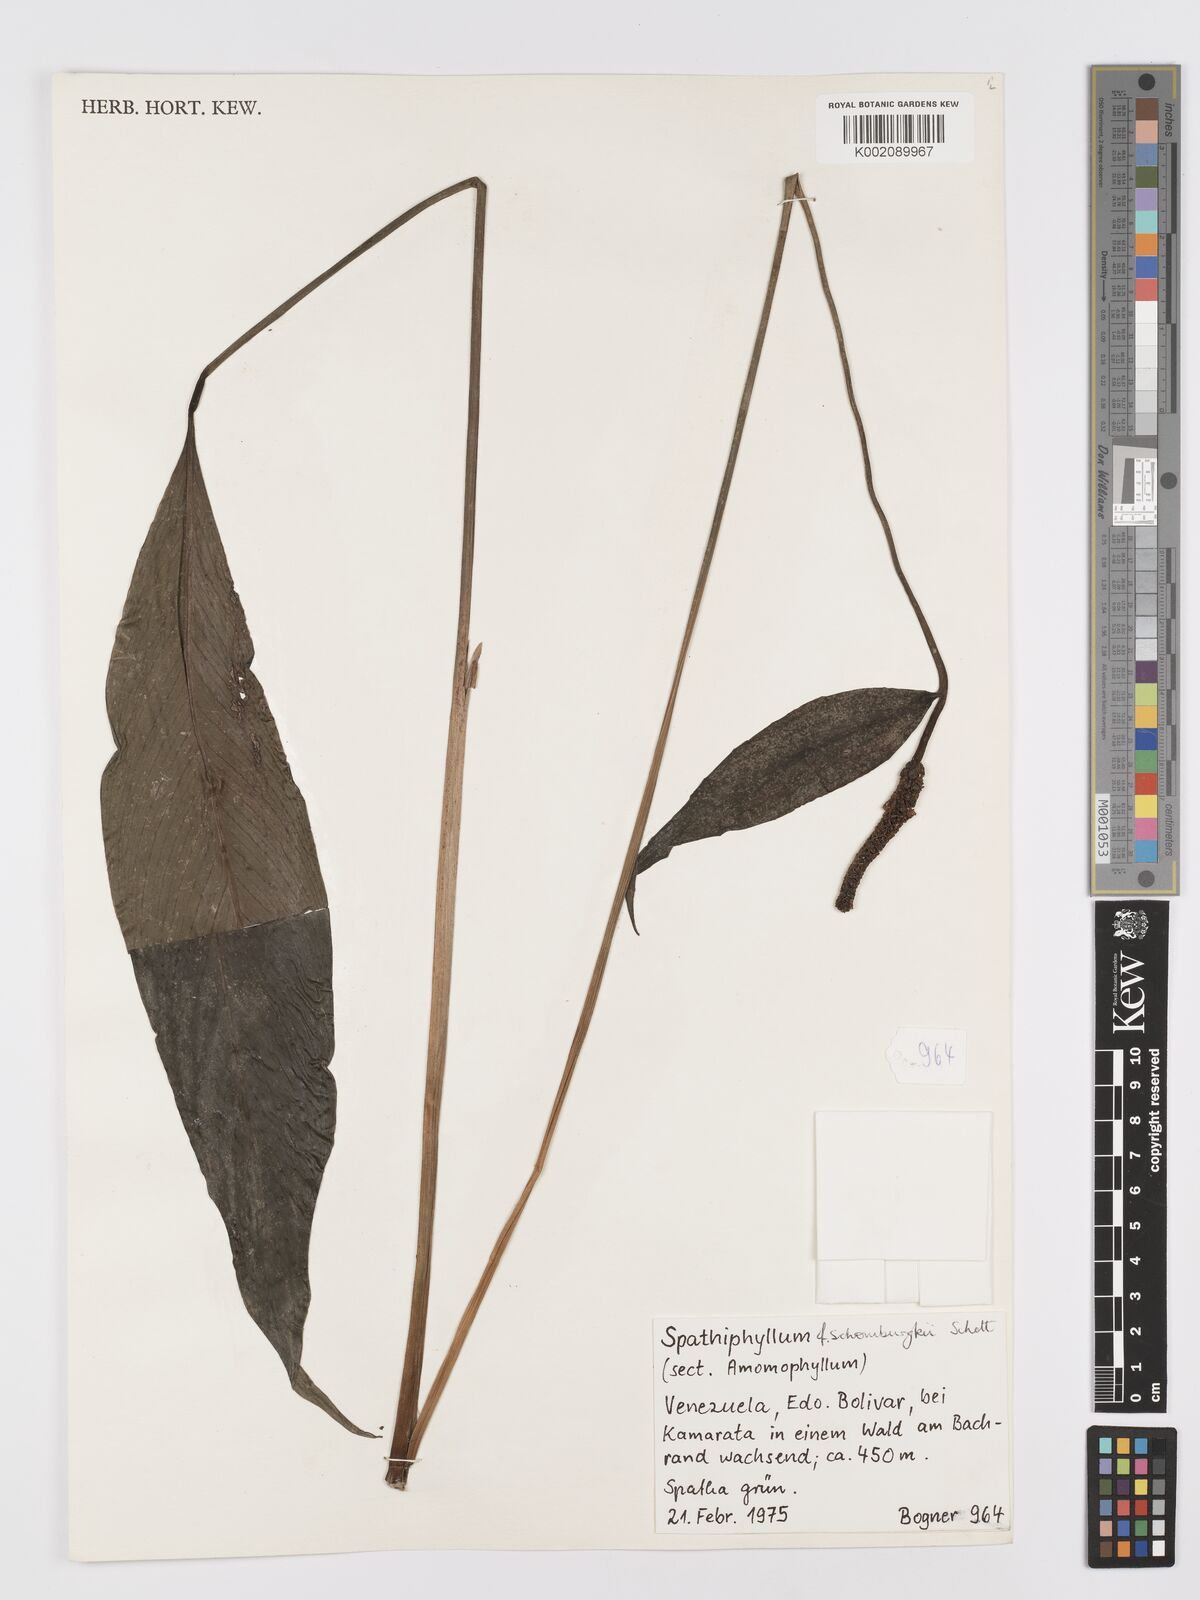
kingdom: Plantae
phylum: Tracheophyta
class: Liliopsida
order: Alismatales
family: Araceae
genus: Spathiphyllum
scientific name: Spathiphyllum schomburgkii
